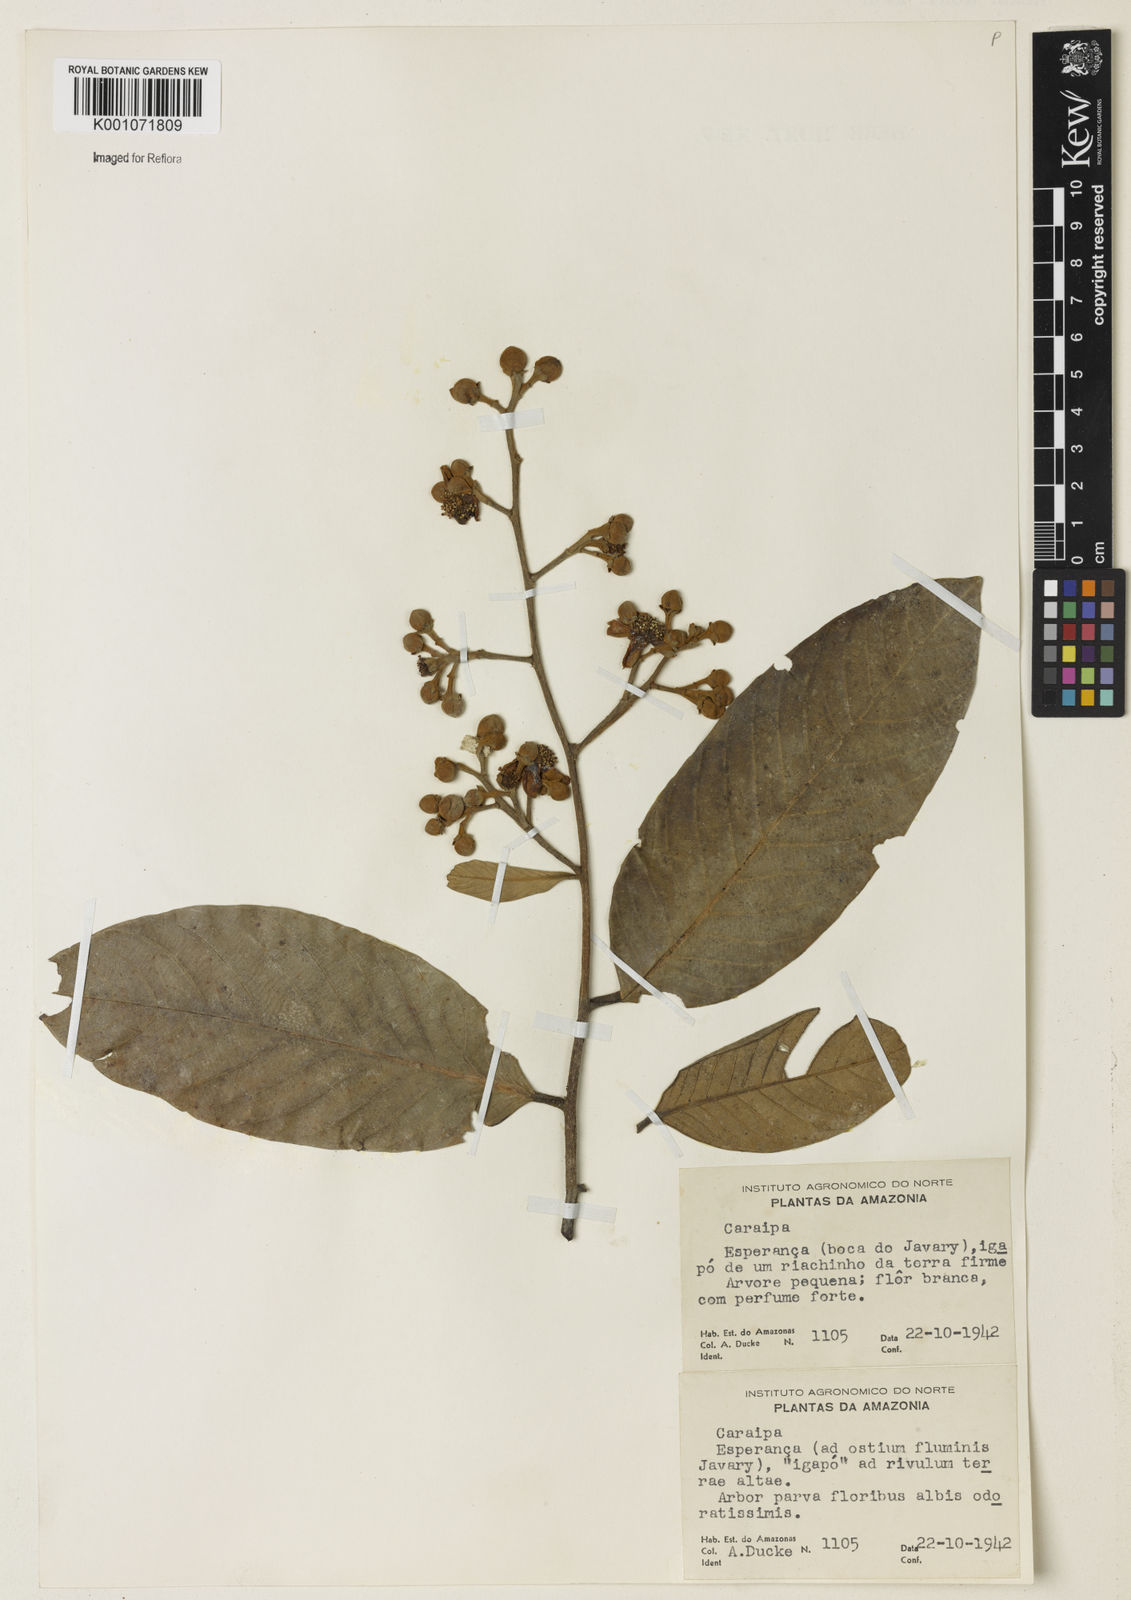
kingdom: Plantae
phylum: Tracheophyta
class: Magnoliopsida
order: Malpighiales
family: Calophyllaceae
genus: Caraipa
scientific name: Caraipa
